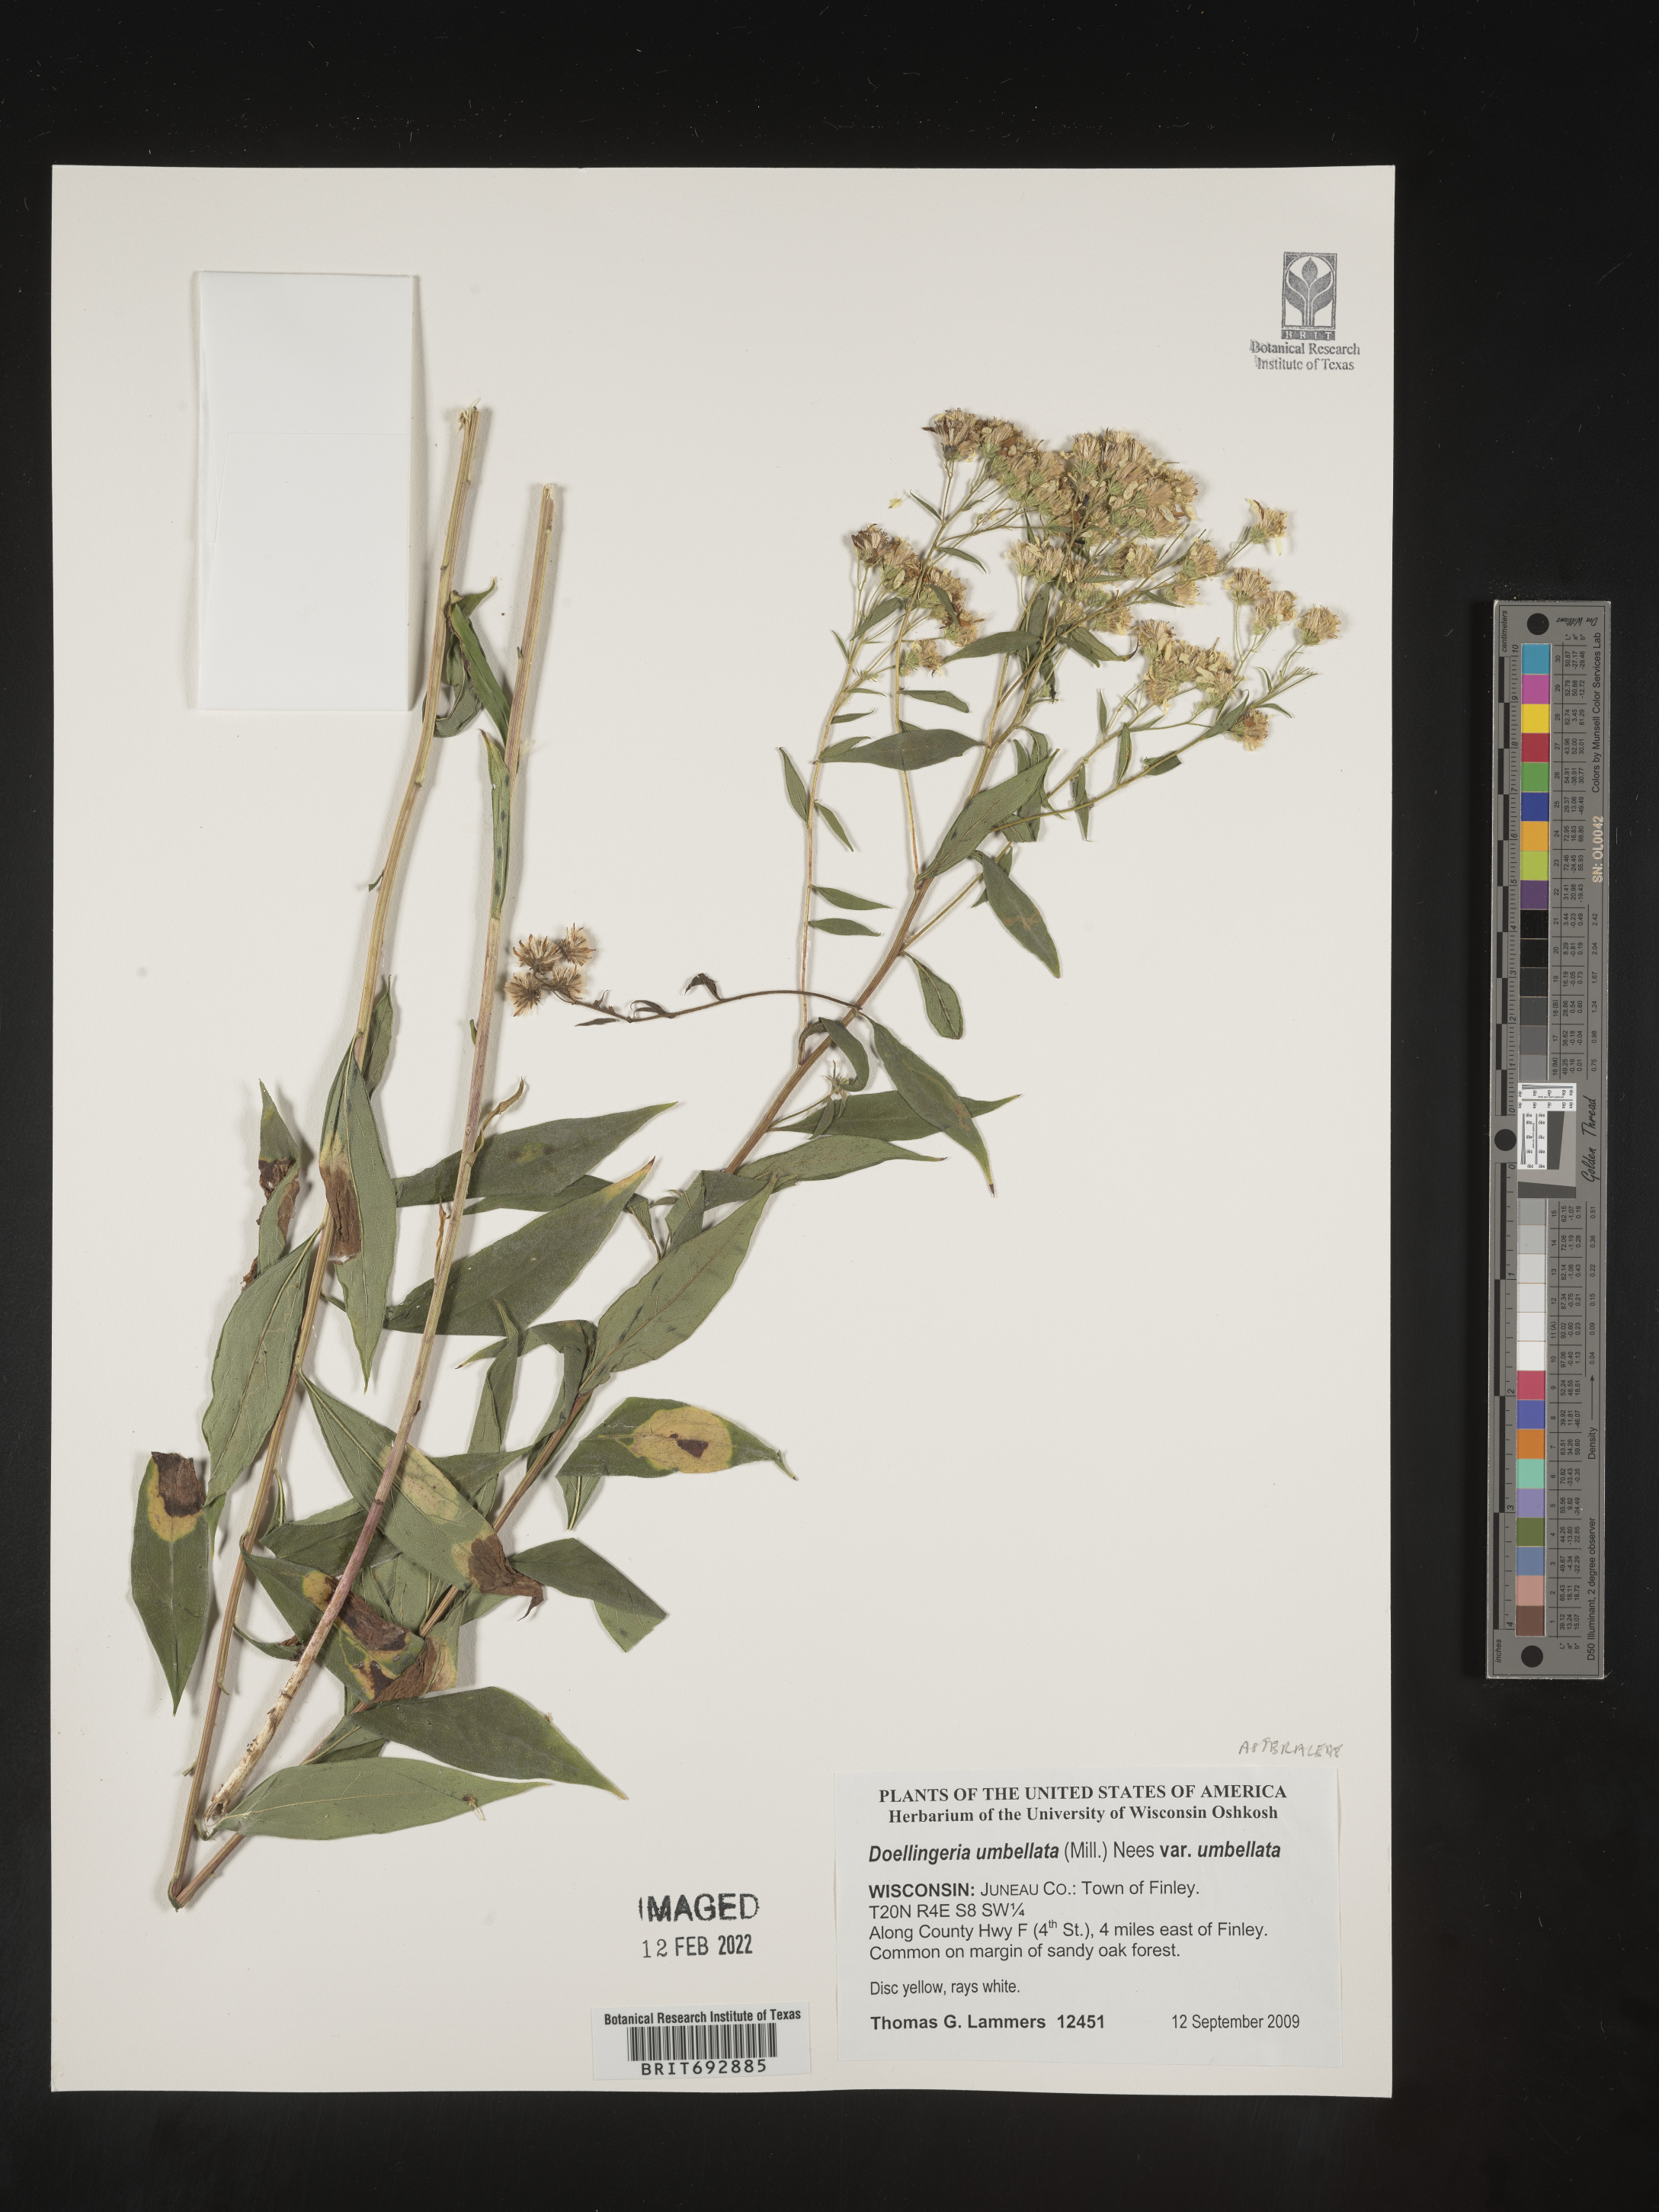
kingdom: Plantae
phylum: Tracheophyta
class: Magnoliopsida
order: Asterales
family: Asteraceae
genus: Doellingeria
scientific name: Doellingeria umbellata
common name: Flat-top white aster
